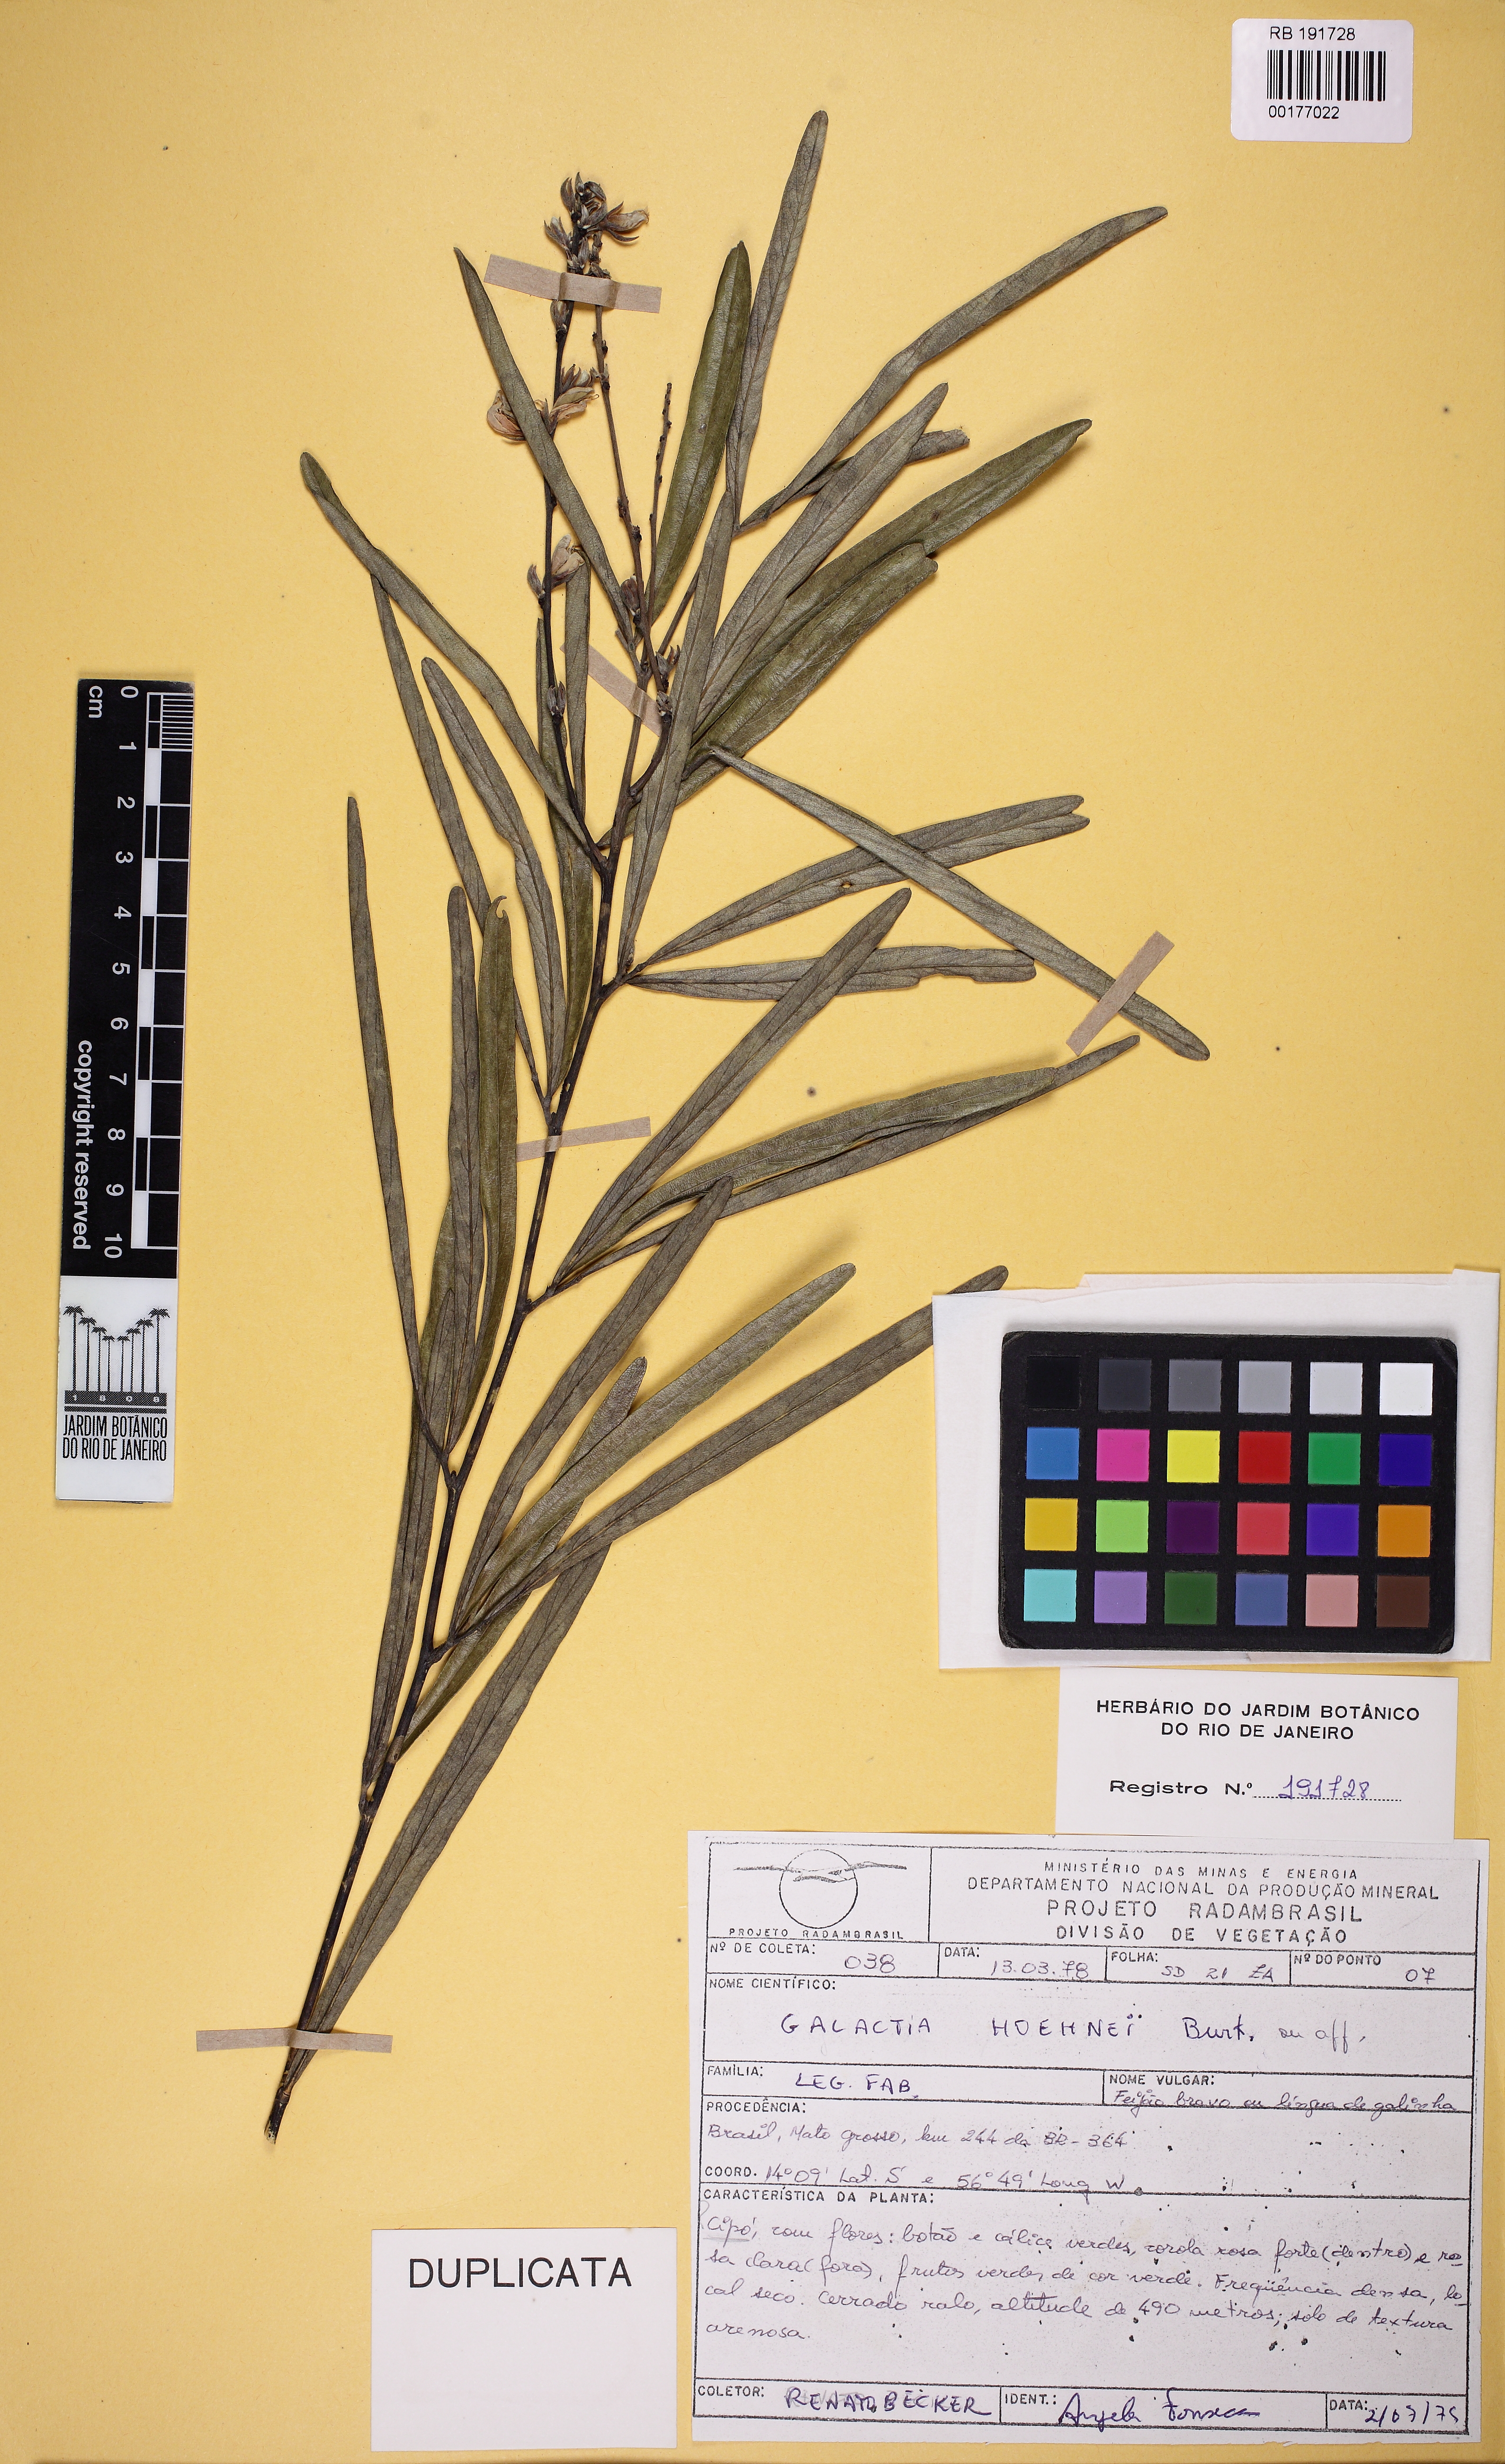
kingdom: Plantae
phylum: Tracheophyta
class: Magnoliopsida
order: Fabales
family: Fabaceae
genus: Cerradicola
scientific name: Cerradicola longifolia
